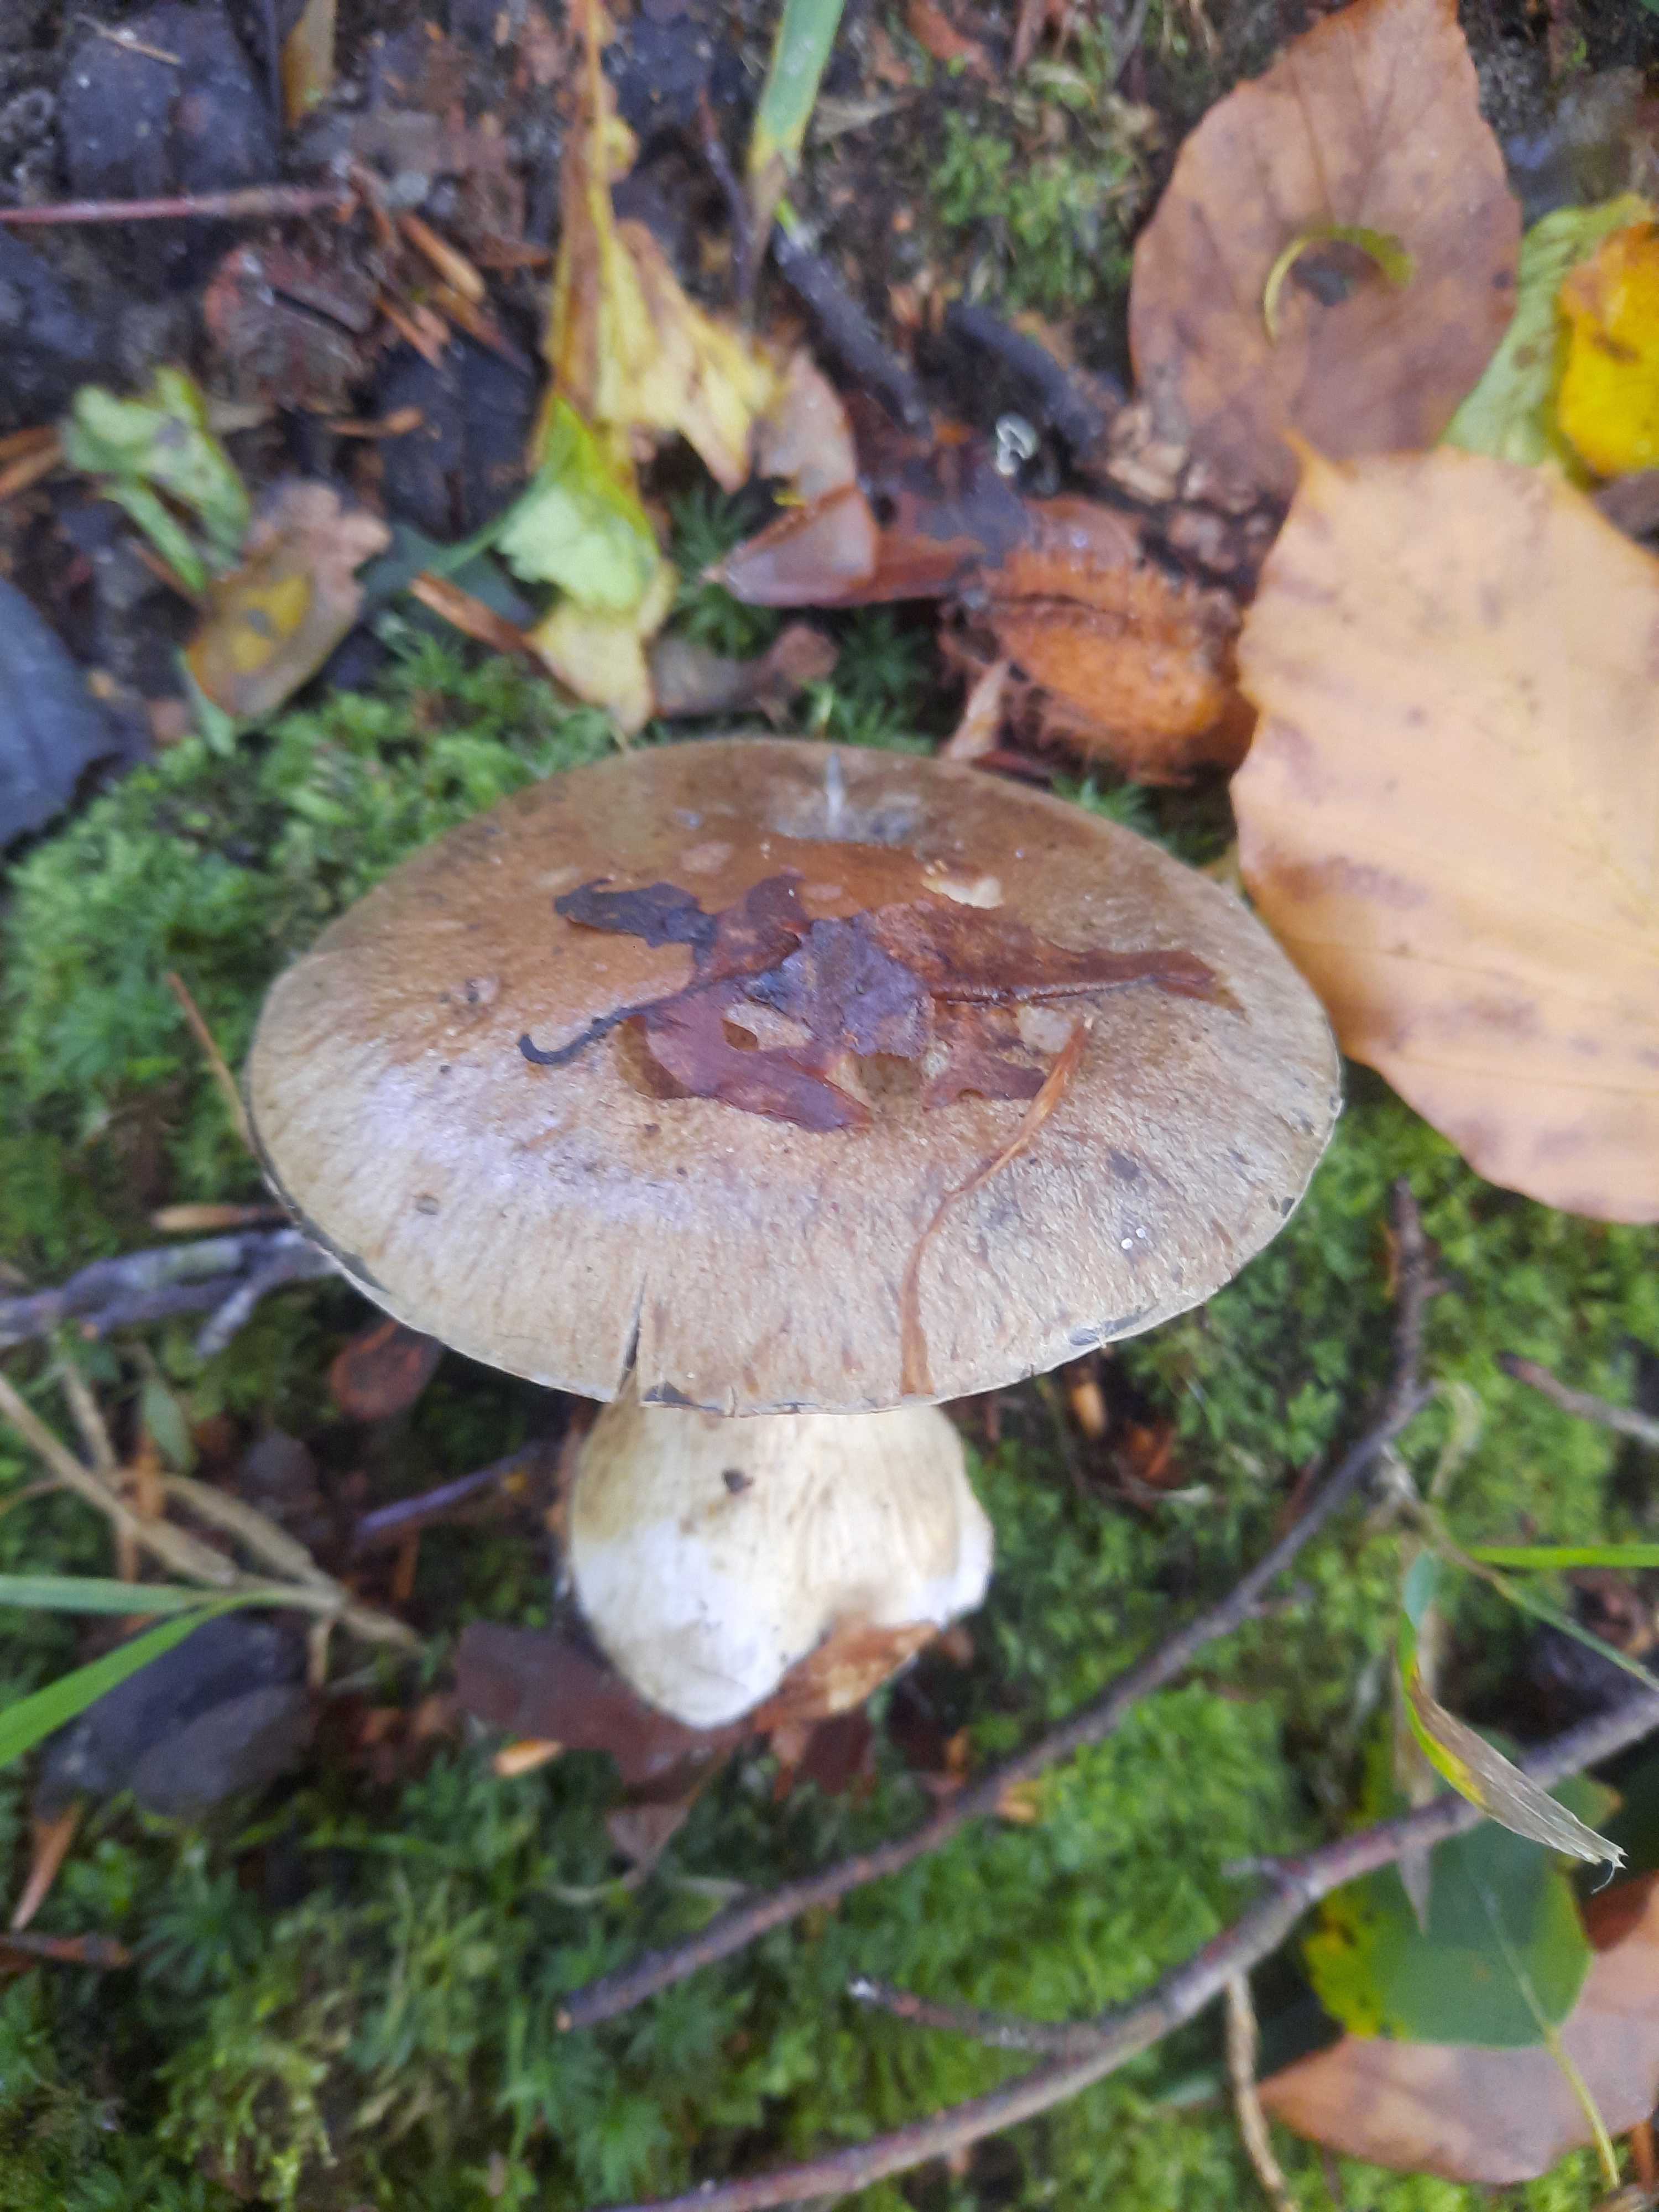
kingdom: Fungi
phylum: Basidiomycota
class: Agaricomycetes
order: Agaricales
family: Cortinariaceae
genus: Cortinarius
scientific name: Cortinarius
